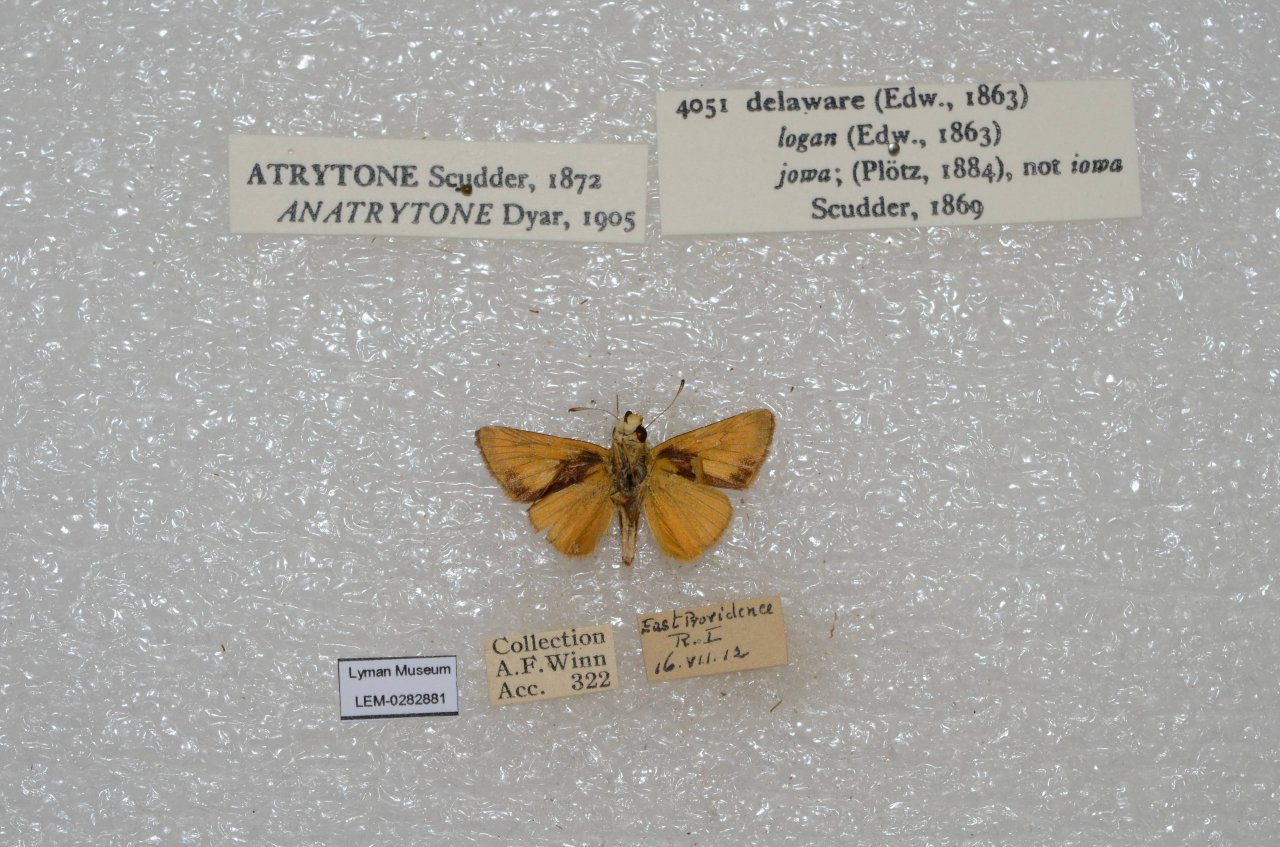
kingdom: Animalia
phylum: Arthropoda
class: Insecta
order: Lepidoptera
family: Hesperiidae
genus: Atrytone
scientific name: Atrytone delaware
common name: Delaware Skipper
